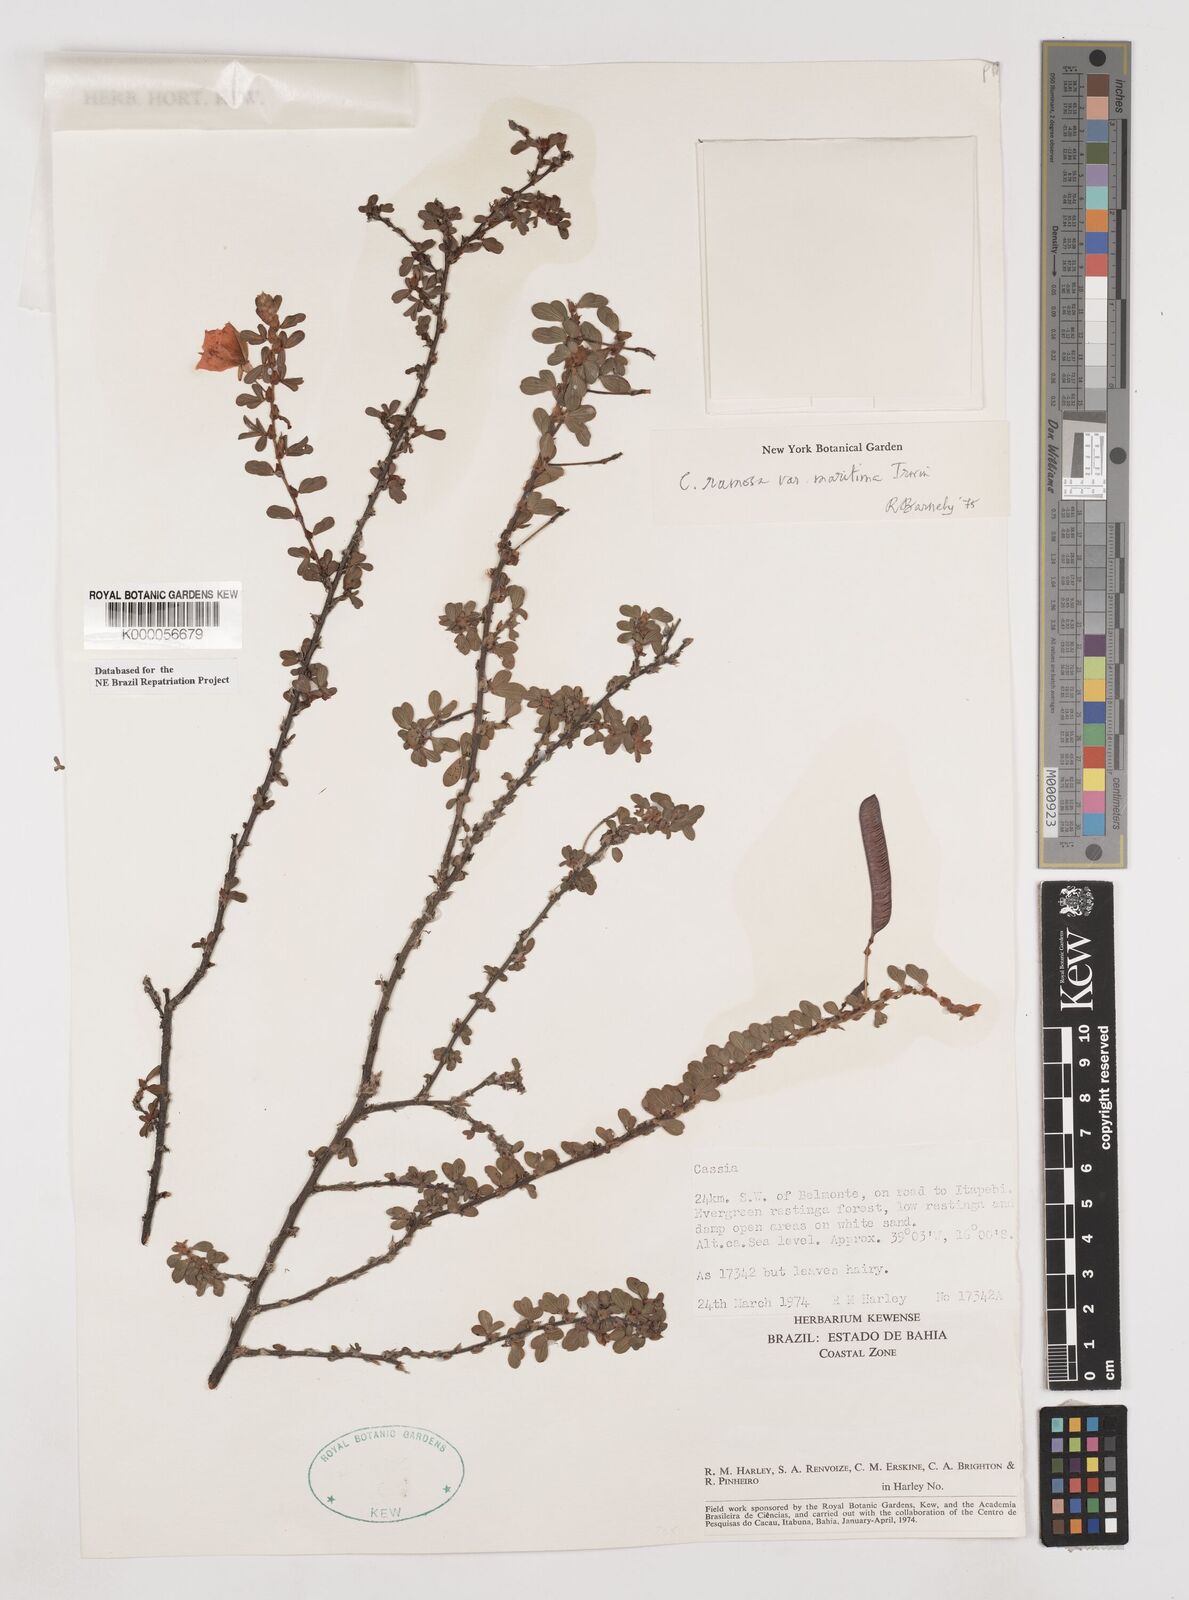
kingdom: Plantae
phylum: Tracheophyta
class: Magnoliopsida
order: Fabales
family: Fabaceae
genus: Chamaecrista
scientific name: Chamaecrista ramosa
